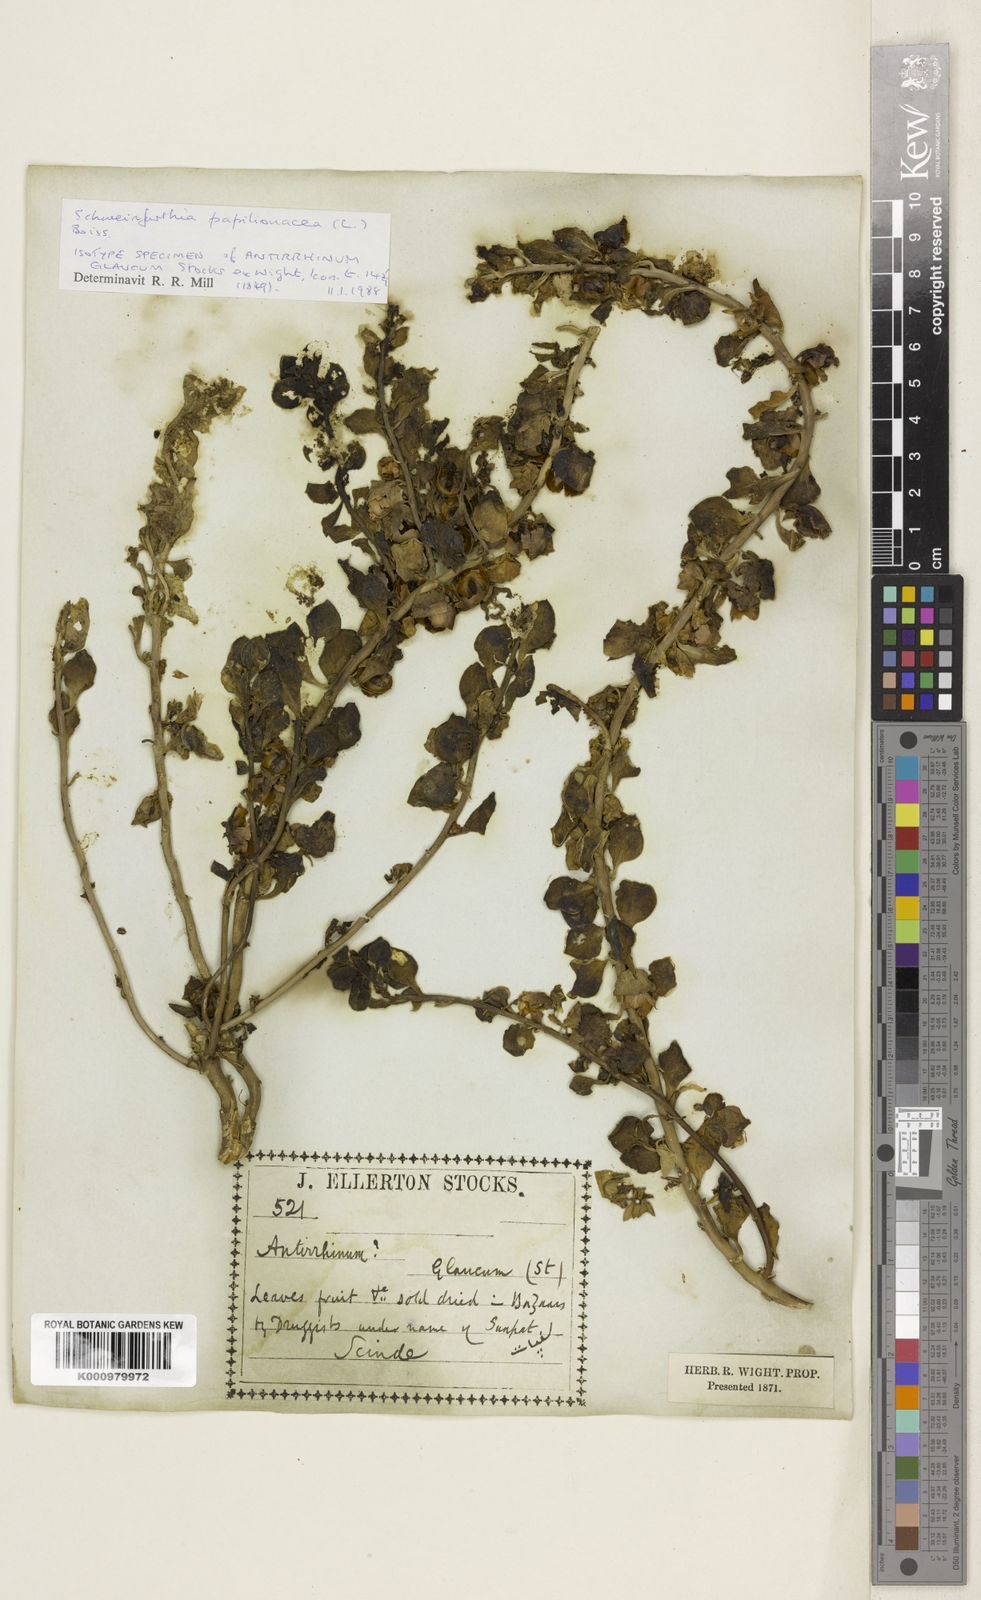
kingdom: Plantae
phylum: Tracheophyta
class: Magnoliopsida
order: Lamiales
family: Plantaginaceae
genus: Schweinfurthia
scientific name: Schweinfurthia papilionacea
